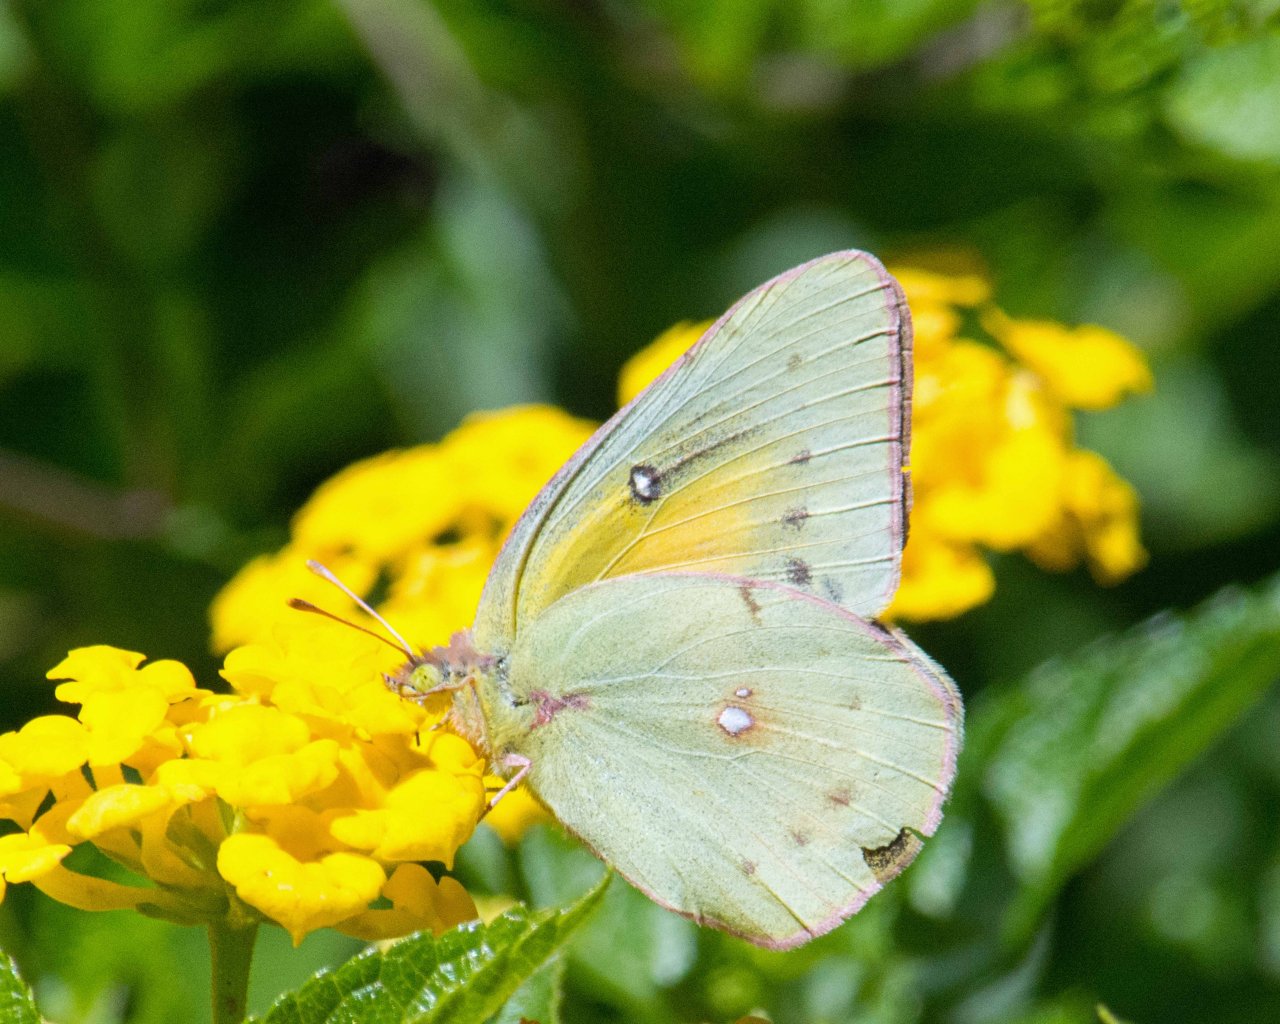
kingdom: Animalia
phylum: Arthropoda
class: Insecta
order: Lepidoptera
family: Pieridae
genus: Colias
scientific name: Colias eurytheme
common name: Orange Sulphur
